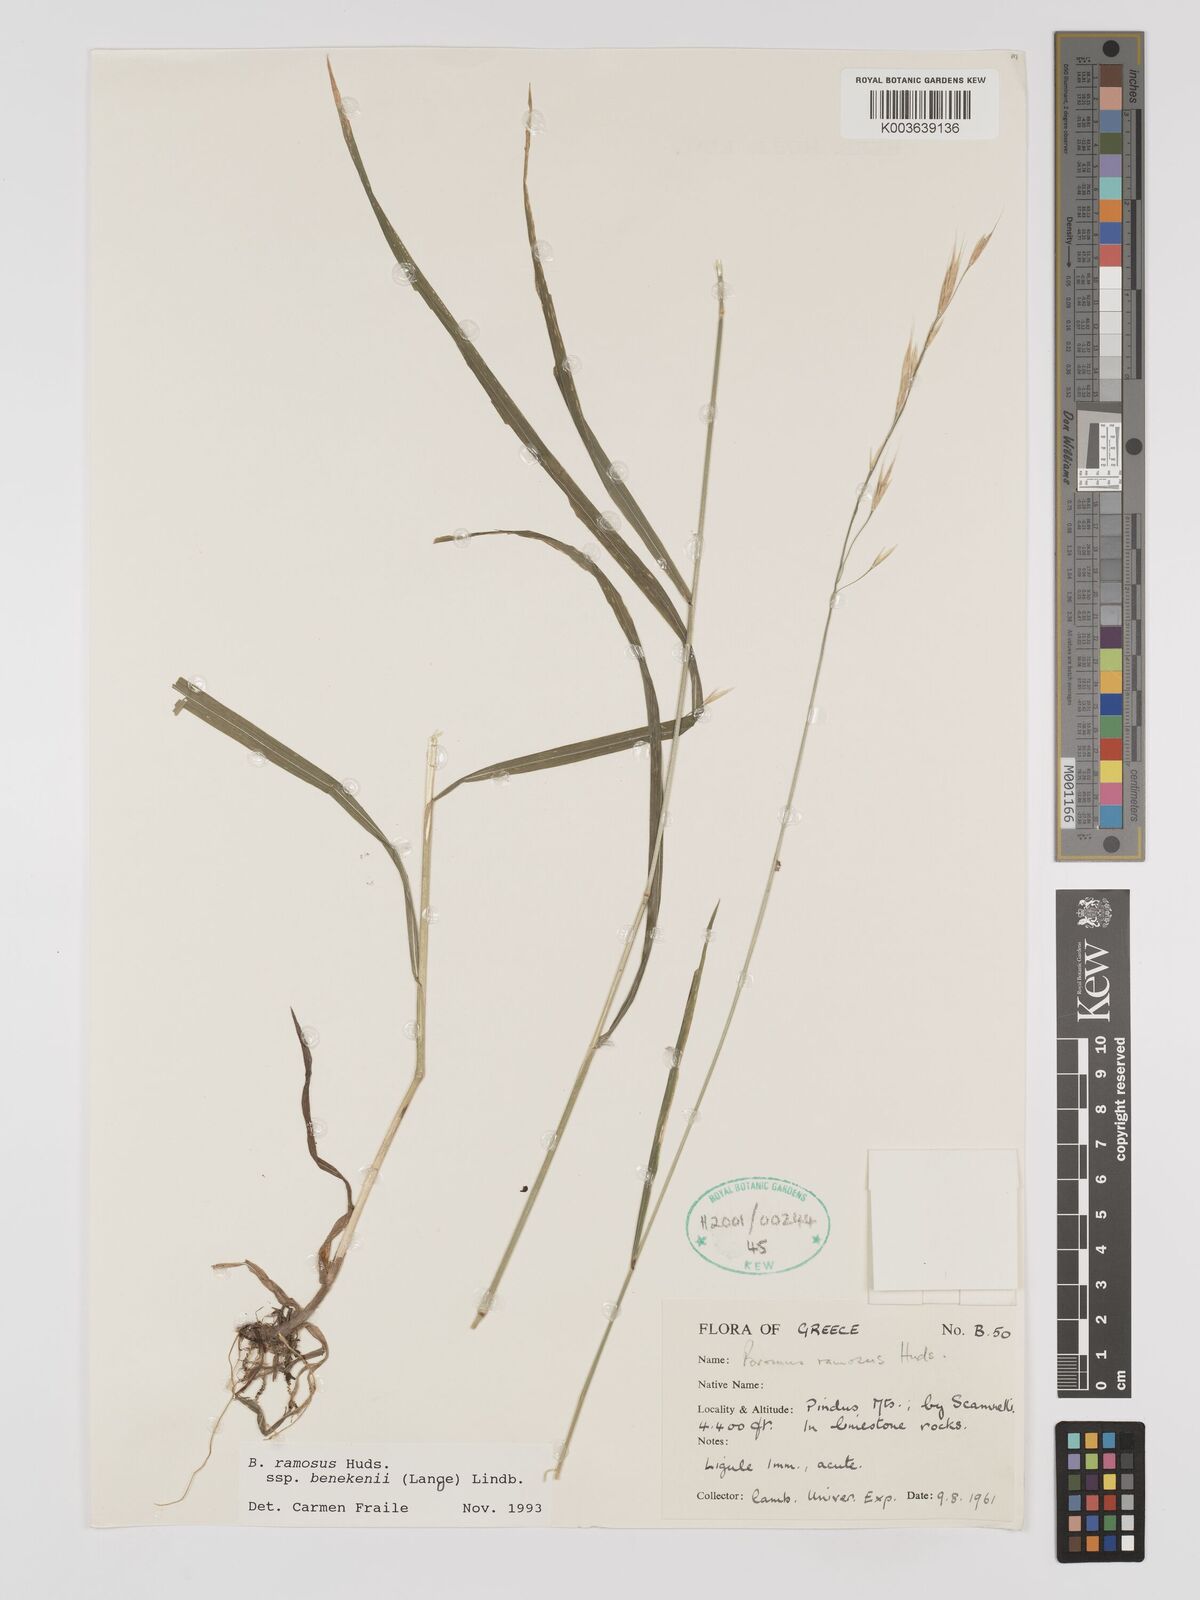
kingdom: Plantae
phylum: Tracheophyta
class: Liliopsida
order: Poales
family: Poaceae
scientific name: Poaceae
